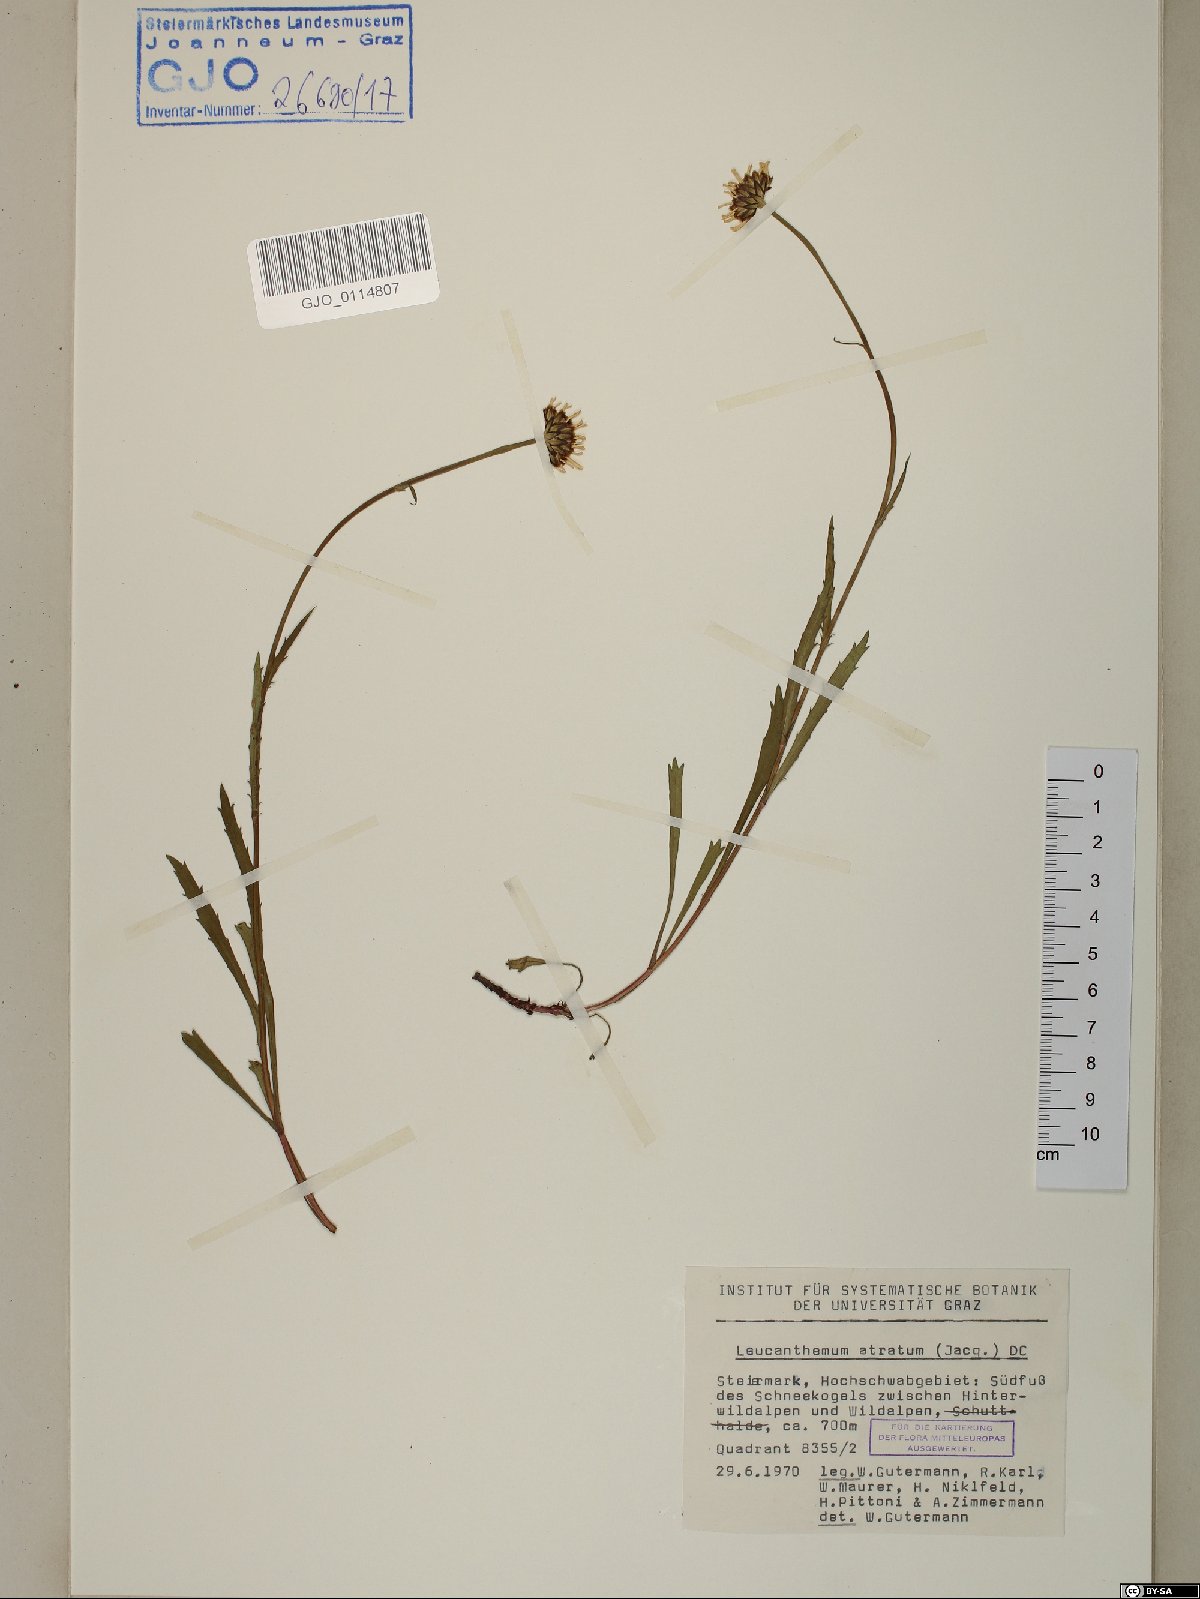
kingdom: Plantae
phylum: Tracheophyta
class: Magnoliopsida
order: Asterales
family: Asteraceae
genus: Leucanthemum
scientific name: Leucanthemum atratum
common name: Saw-leaved moon-daisy
